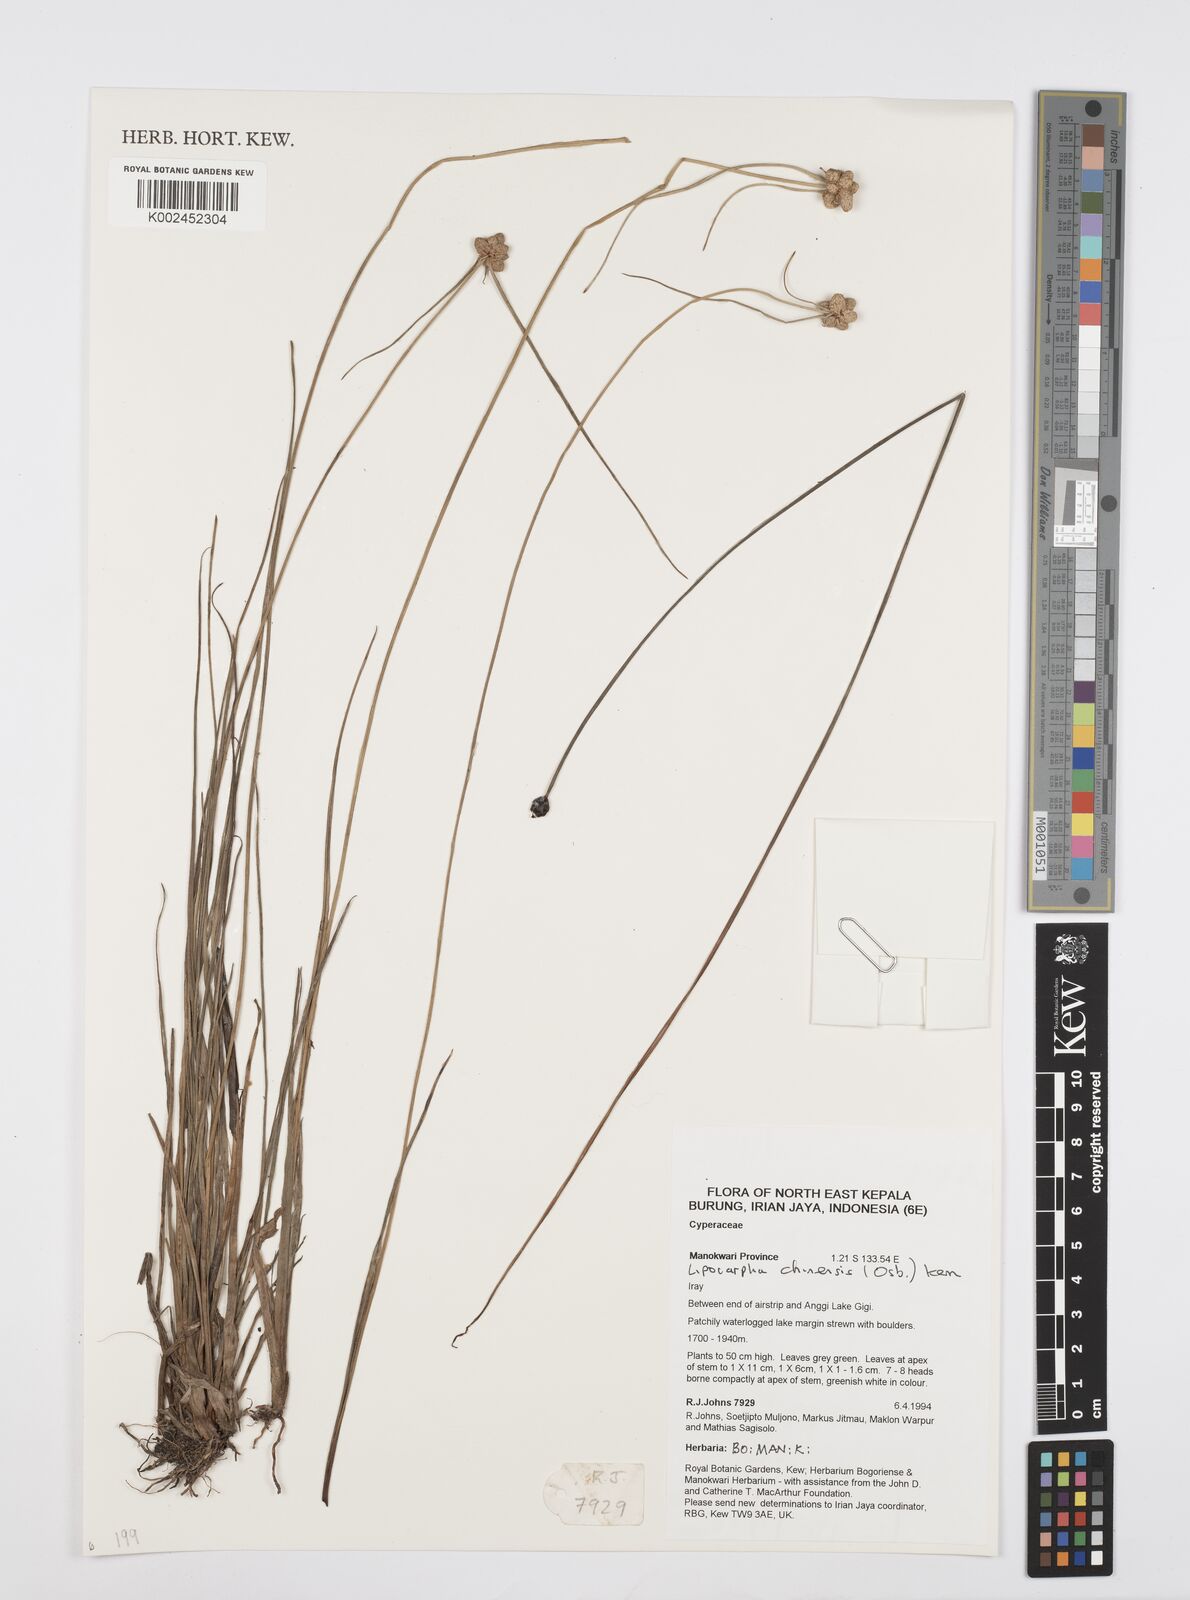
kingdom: Plantae
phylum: Tracheophyta
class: Liliopsida
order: Poales
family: Cyperaceae
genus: Cyperus
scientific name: Cyperus albescens
